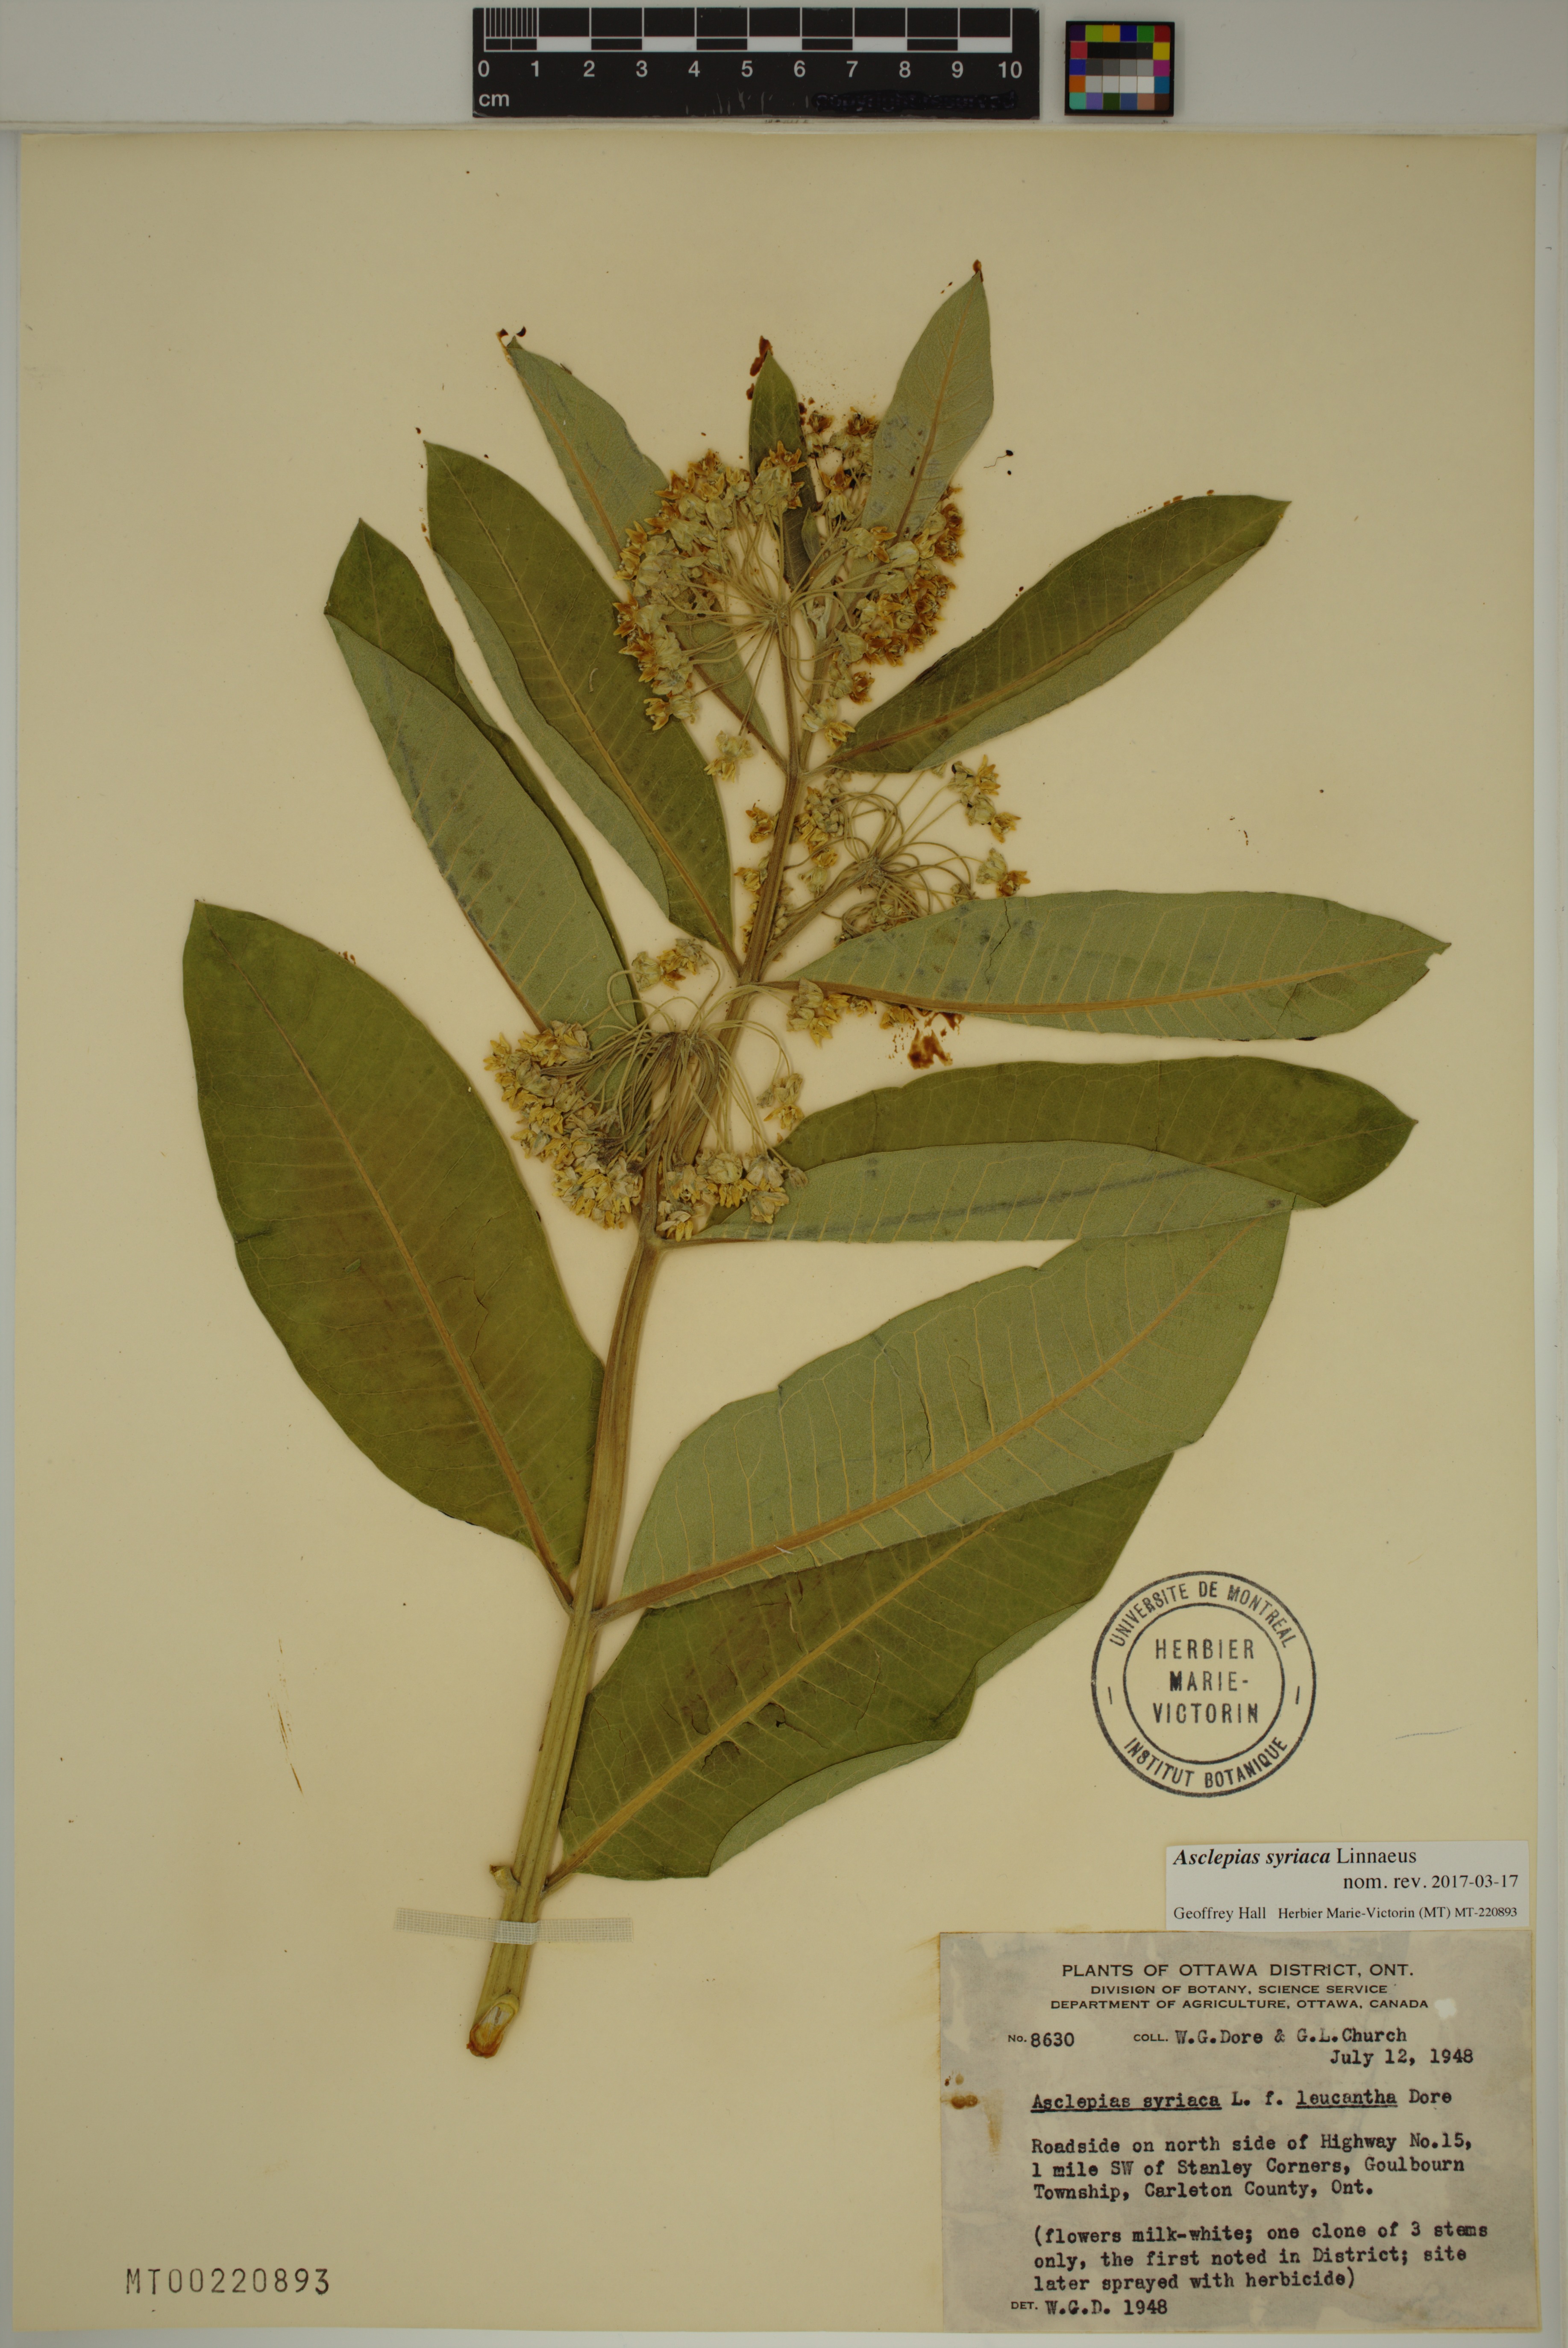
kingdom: Plantae
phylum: Tracheophyta
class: Magnoliopsida
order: Gentianales
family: Apocynaceae
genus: Asclepias
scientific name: Asclepias syriaca
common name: Common milkweed
